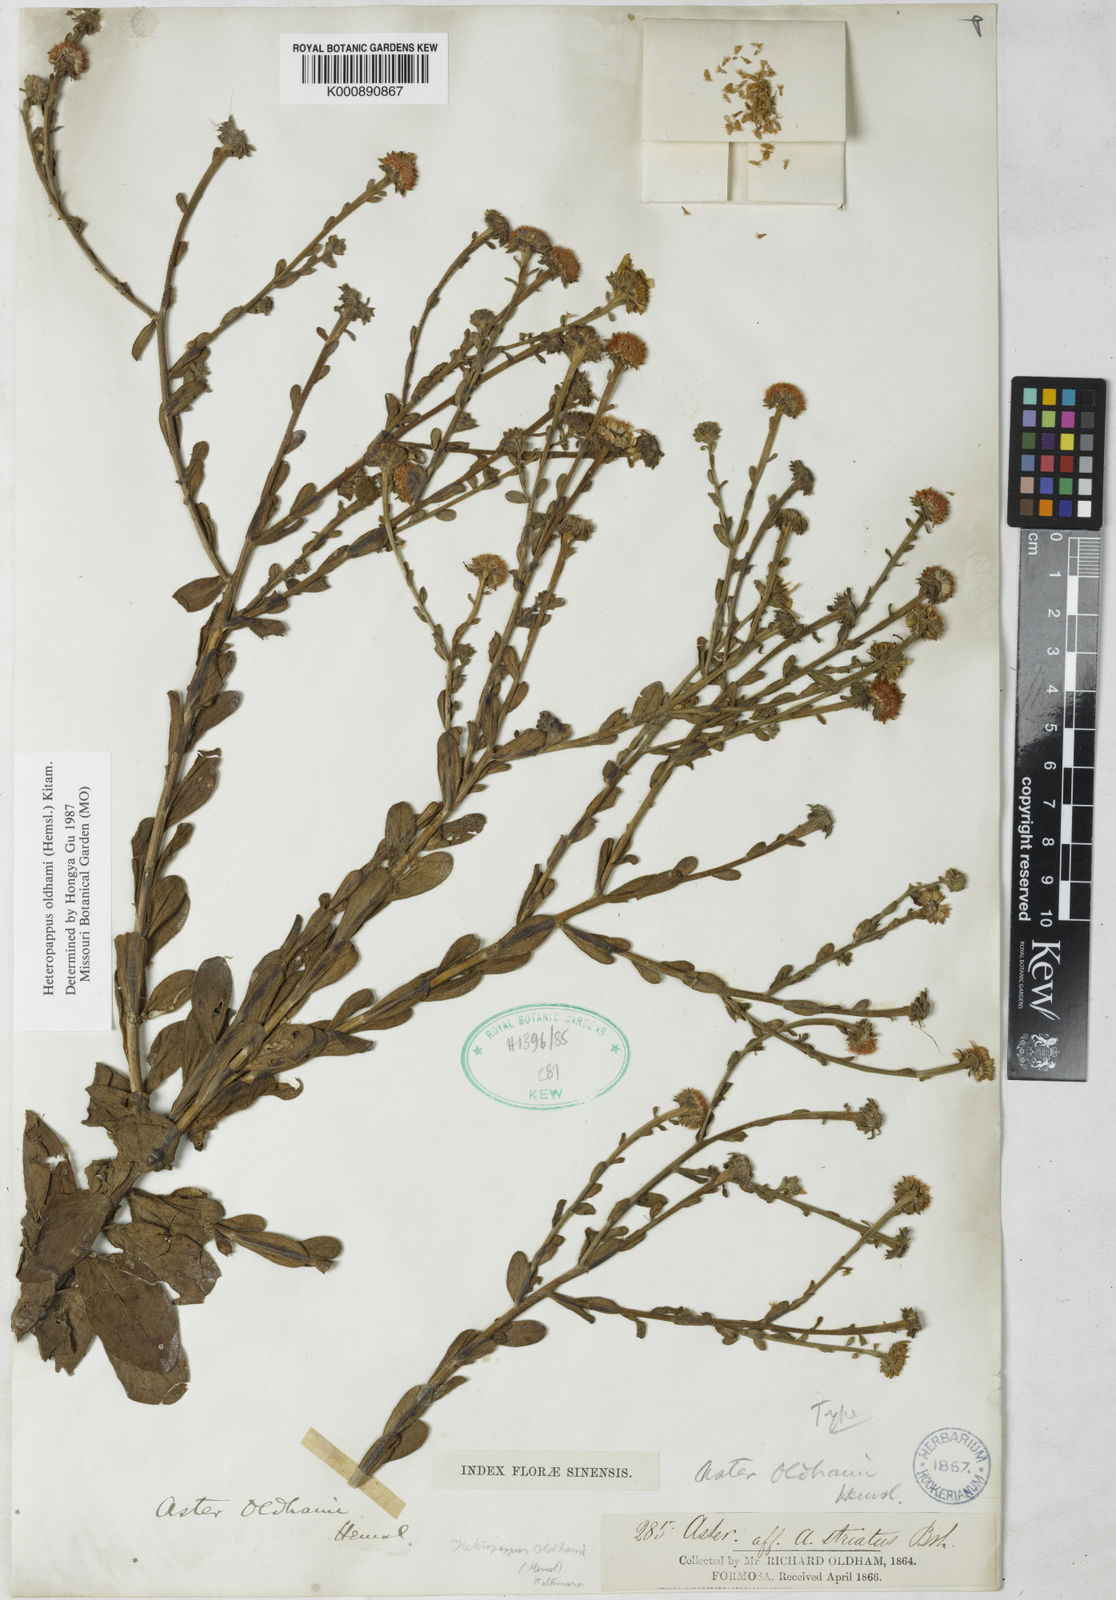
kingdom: Plantae
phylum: Tracheophyta
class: Magnoliopsida
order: Asterales
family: Asteraceae
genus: Heteropappus
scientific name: Heteropappus oldhamii
